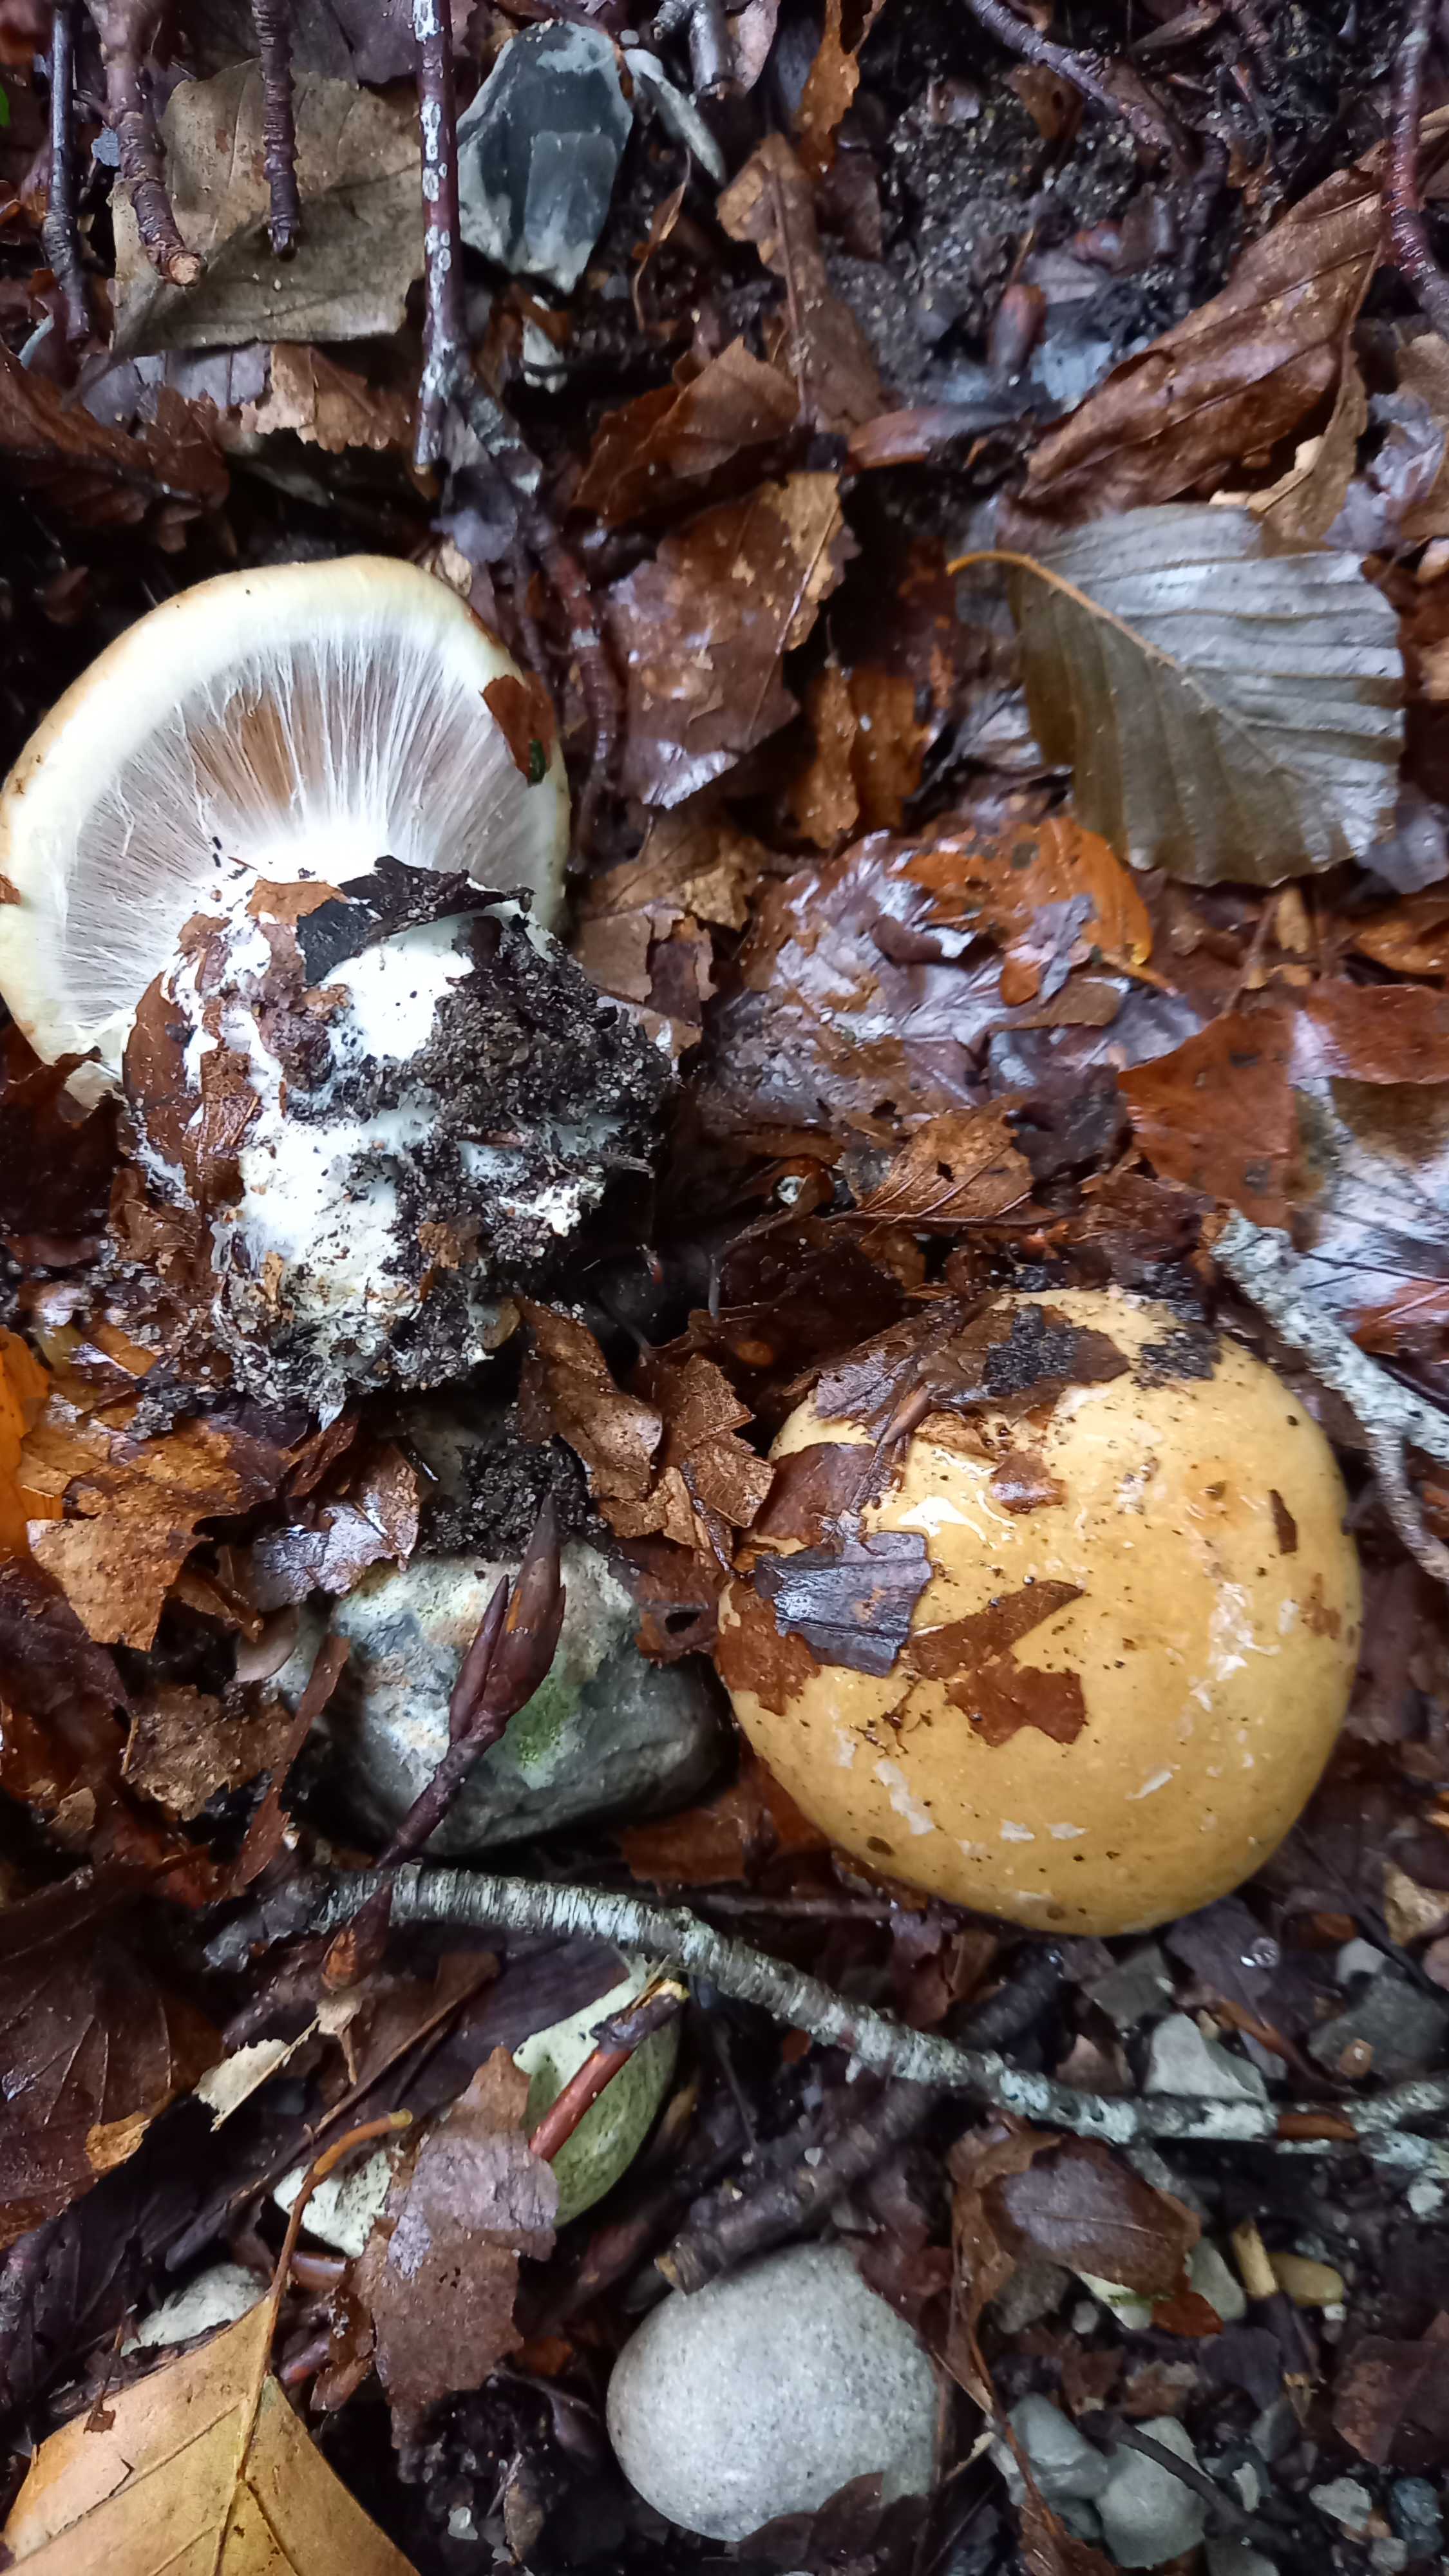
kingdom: Fungi
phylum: Basidiomycota
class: Agaricomycetes
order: Agaricales
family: Cortinariaceae
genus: Cortinarius
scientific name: Cortinarius anserinus
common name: bøge-slørhat
